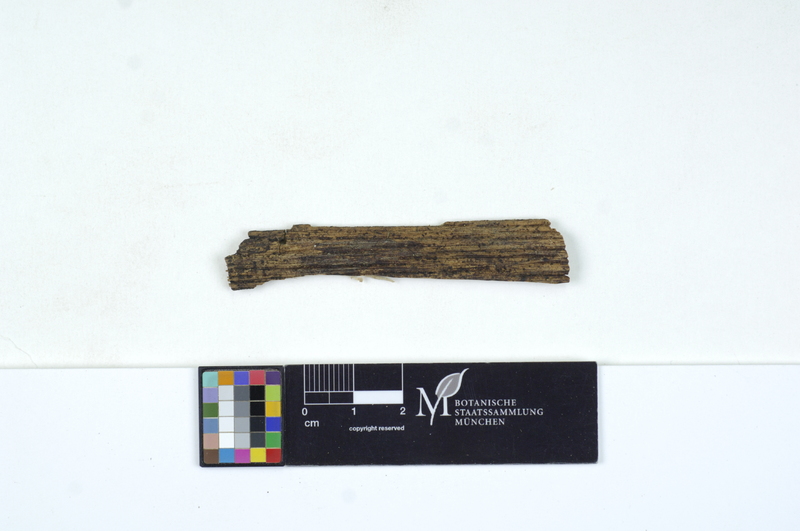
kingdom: Plantae
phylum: Tracheophyta
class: Magnoliopsida
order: Fagales
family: Fagaceae
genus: Quercus
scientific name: Quercus
